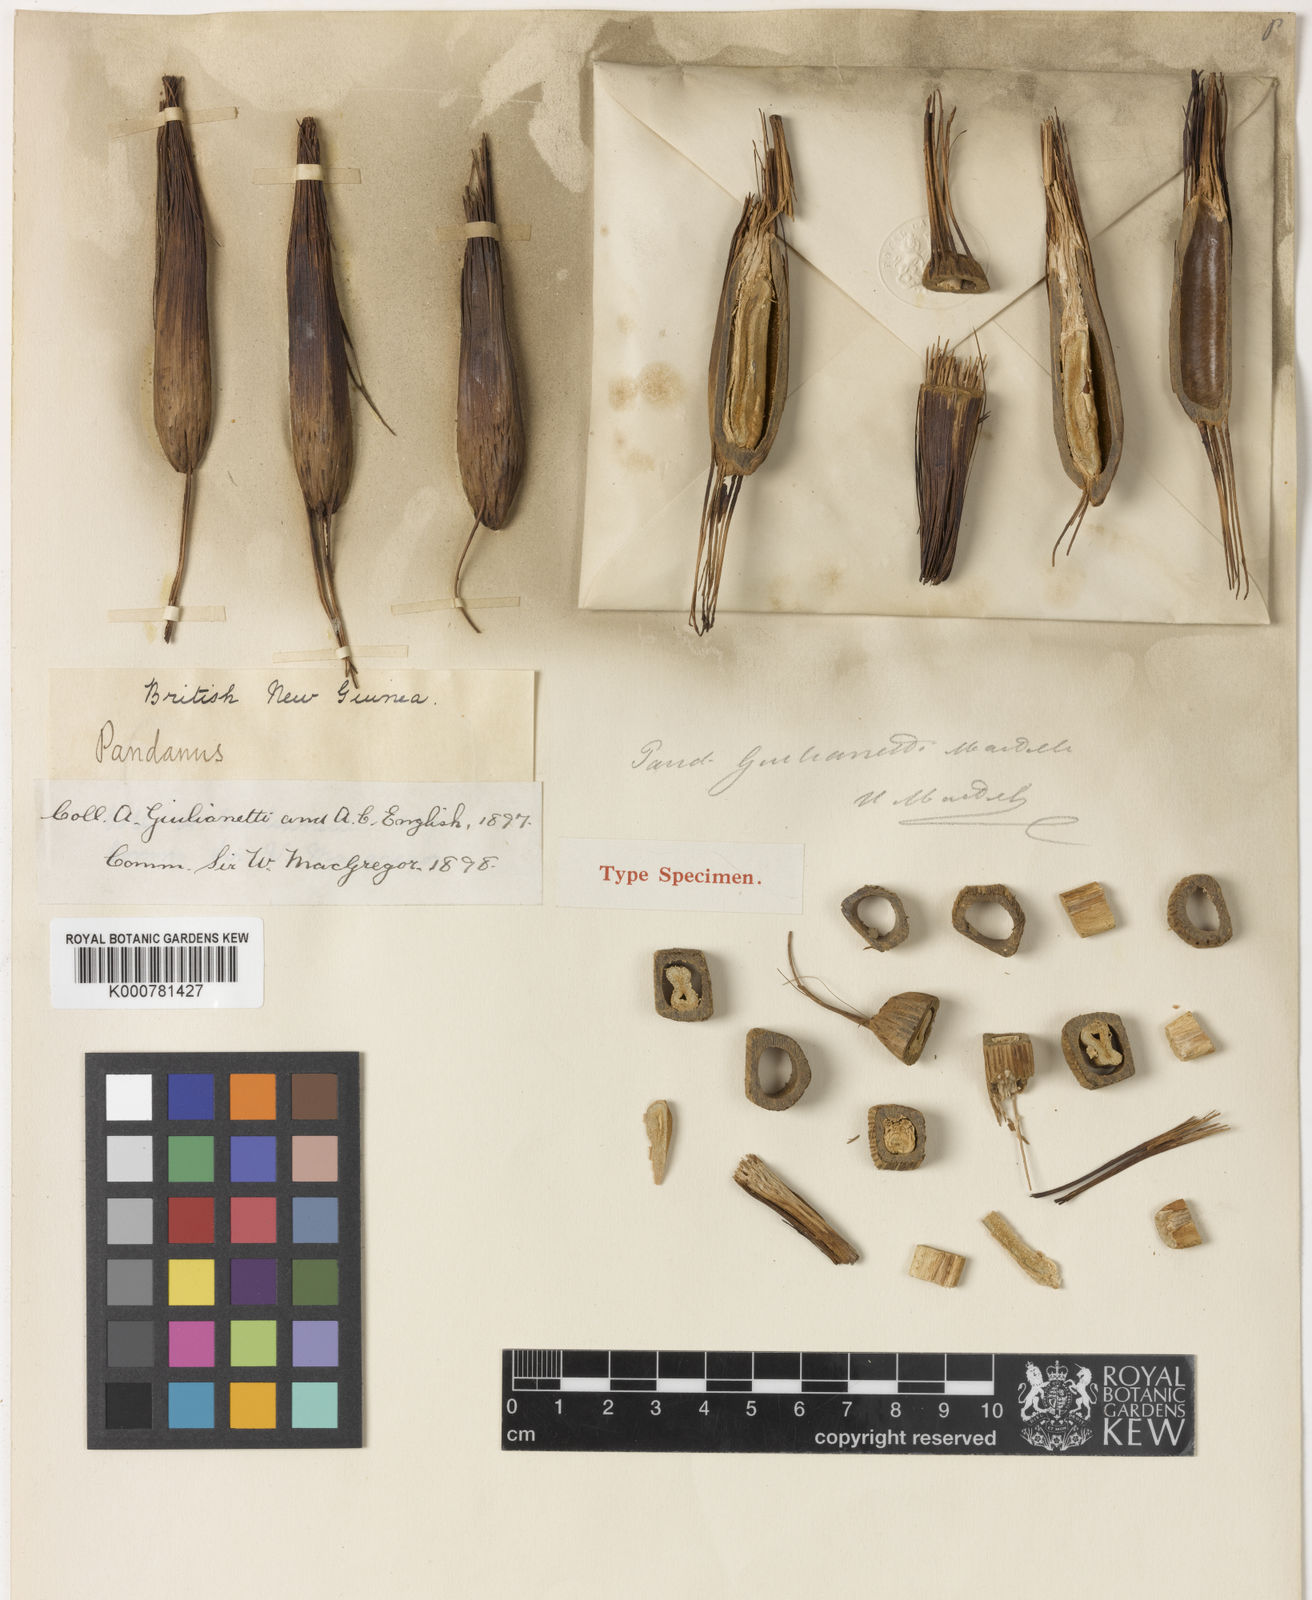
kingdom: Plantae
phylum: Tracheophyta
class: Liliopsida
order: Pandanales
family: Pandanaceae
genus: Pandanus
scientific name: Pandanus julianettii
